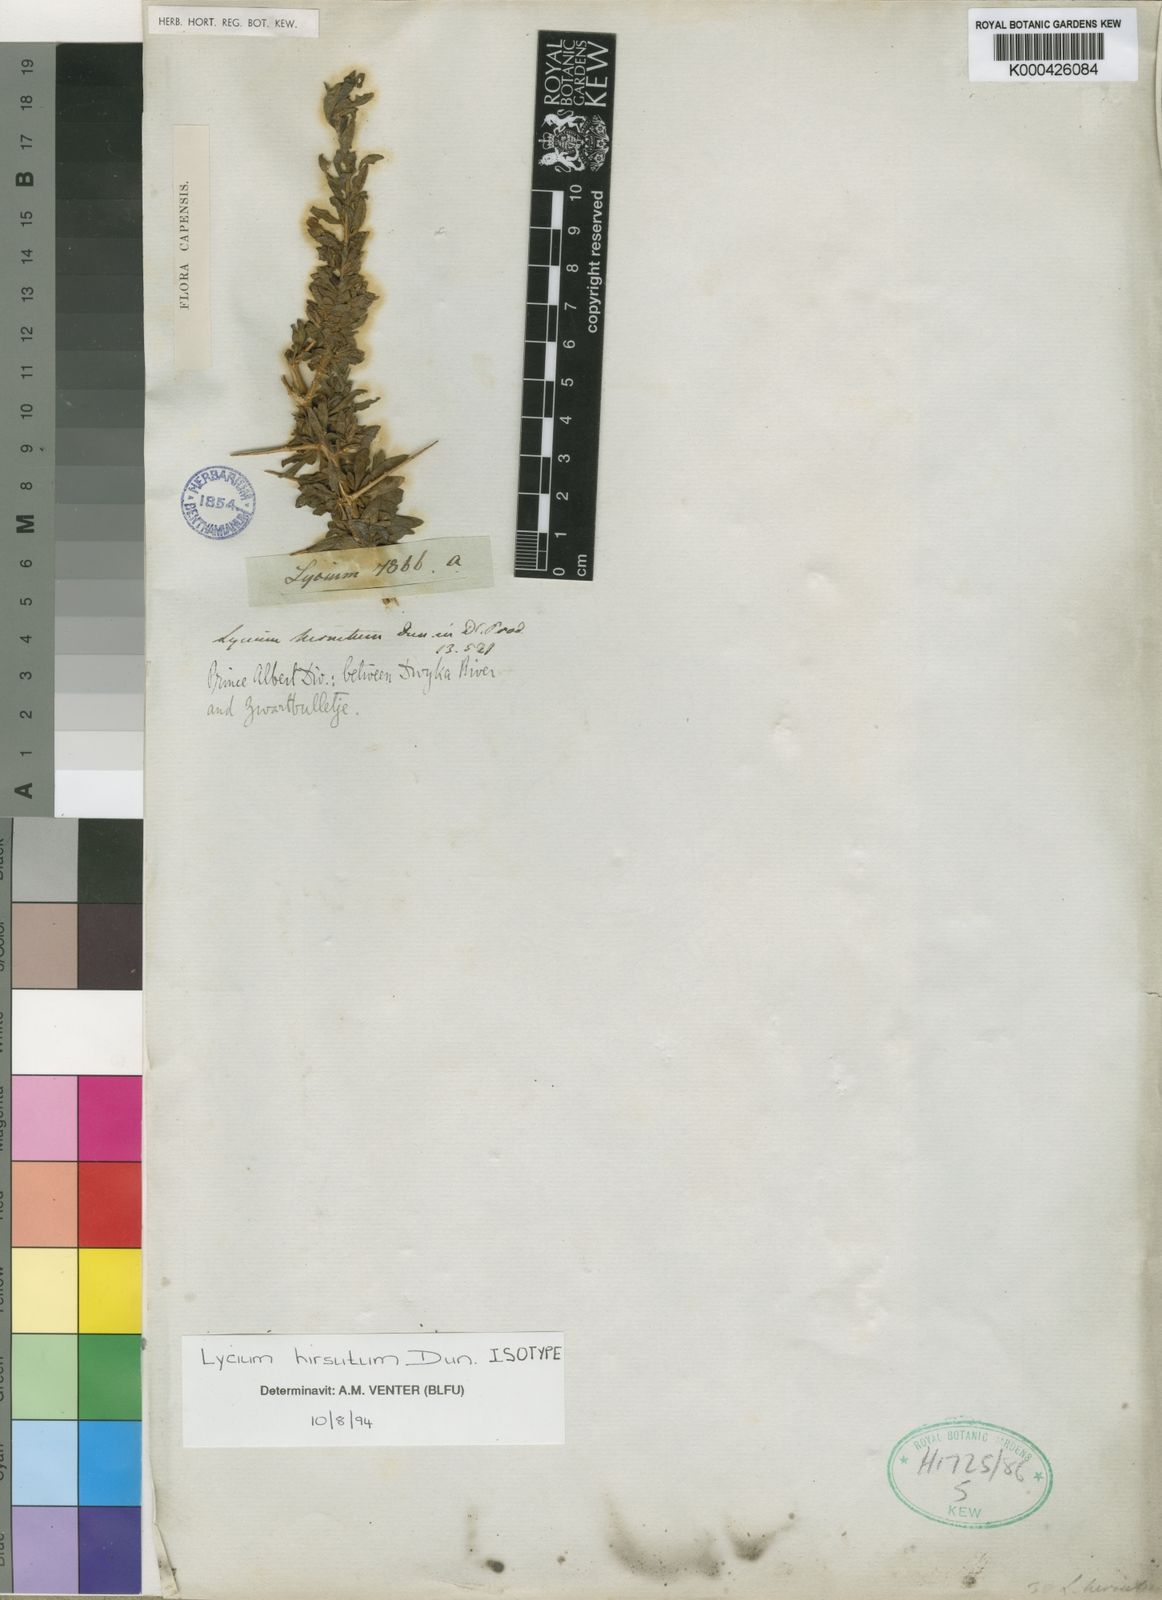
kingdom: Plantae
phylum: Tracheophyta
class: Magnoliopsida
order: Solanales
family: Solanaceae
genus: Lycium
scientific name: Lycium hirsutum
